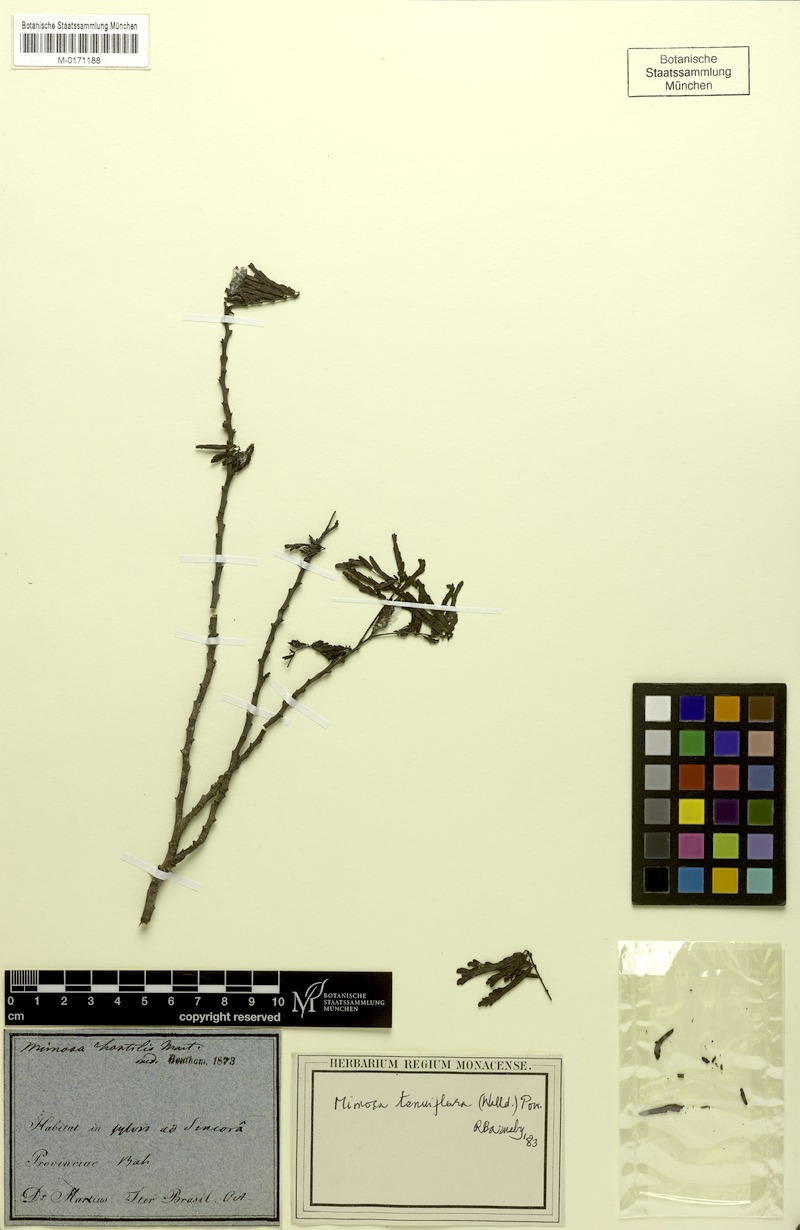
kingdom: Plantae
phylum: Tracheophyta
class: Magnoliopsida
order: Fabales
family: Fabaceae
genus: Mimosa
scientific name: Mimosa tenuiflora
